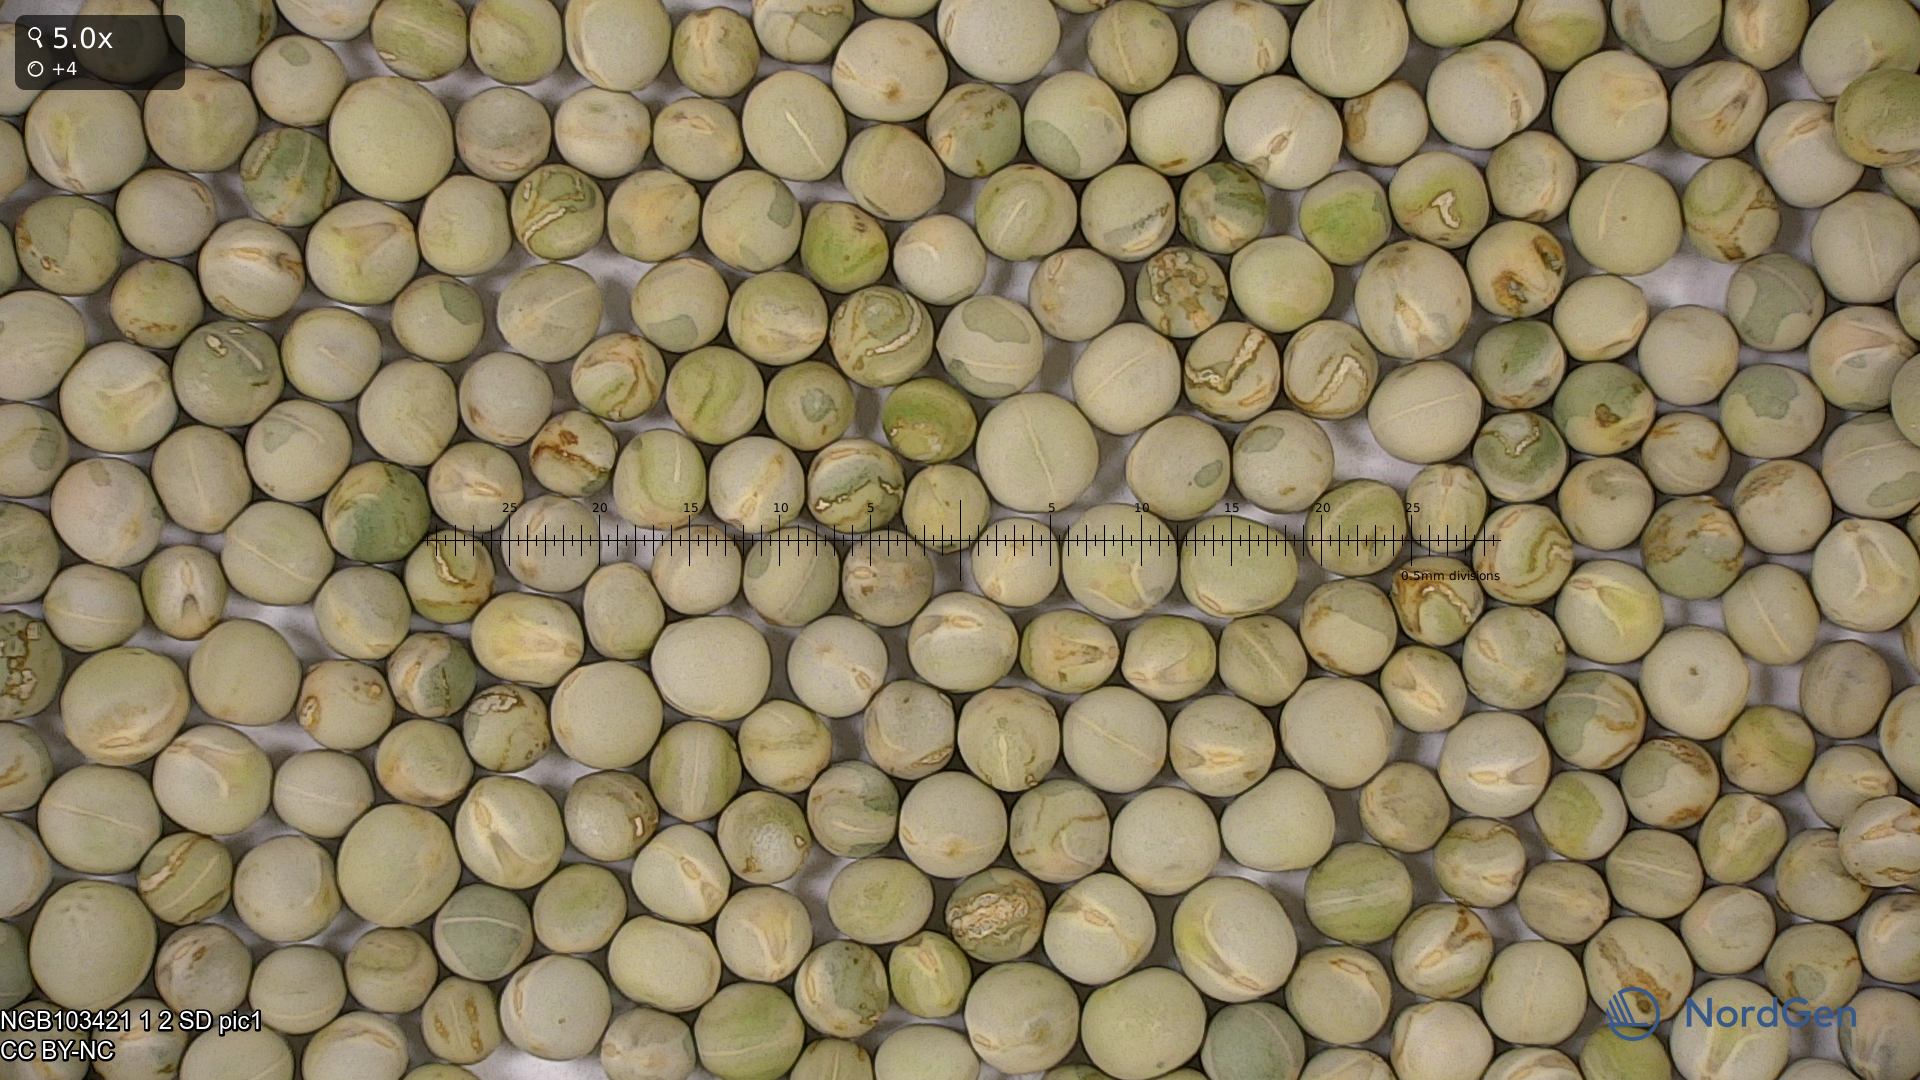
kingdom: Plantae
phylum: Tracheophyta
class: Magnoliopsida
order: Fabales
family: Fabaceae
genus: Lathyrus
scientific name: Lathyrus oleraceus
